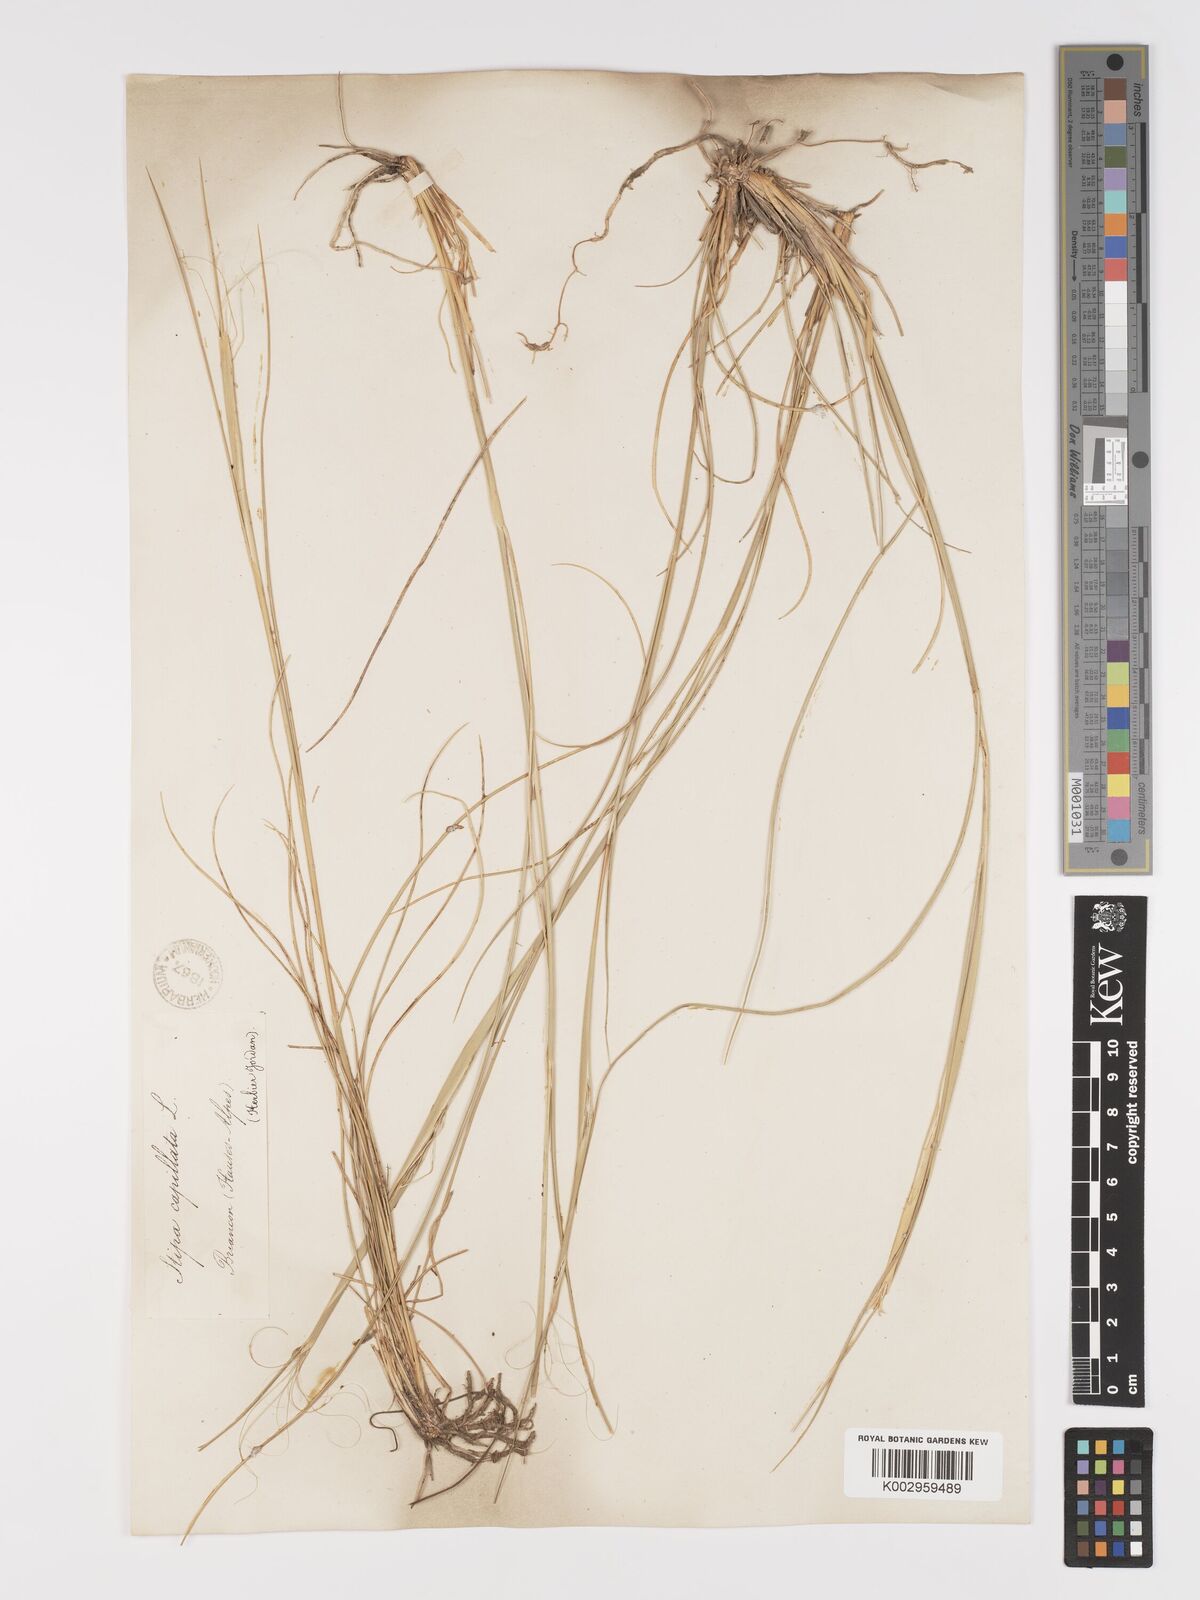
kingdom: Plantae
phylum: Tracheophyta
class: Liliopsida
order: Poales
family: Poaceae
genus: Stipa
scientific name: Stipa capillata
